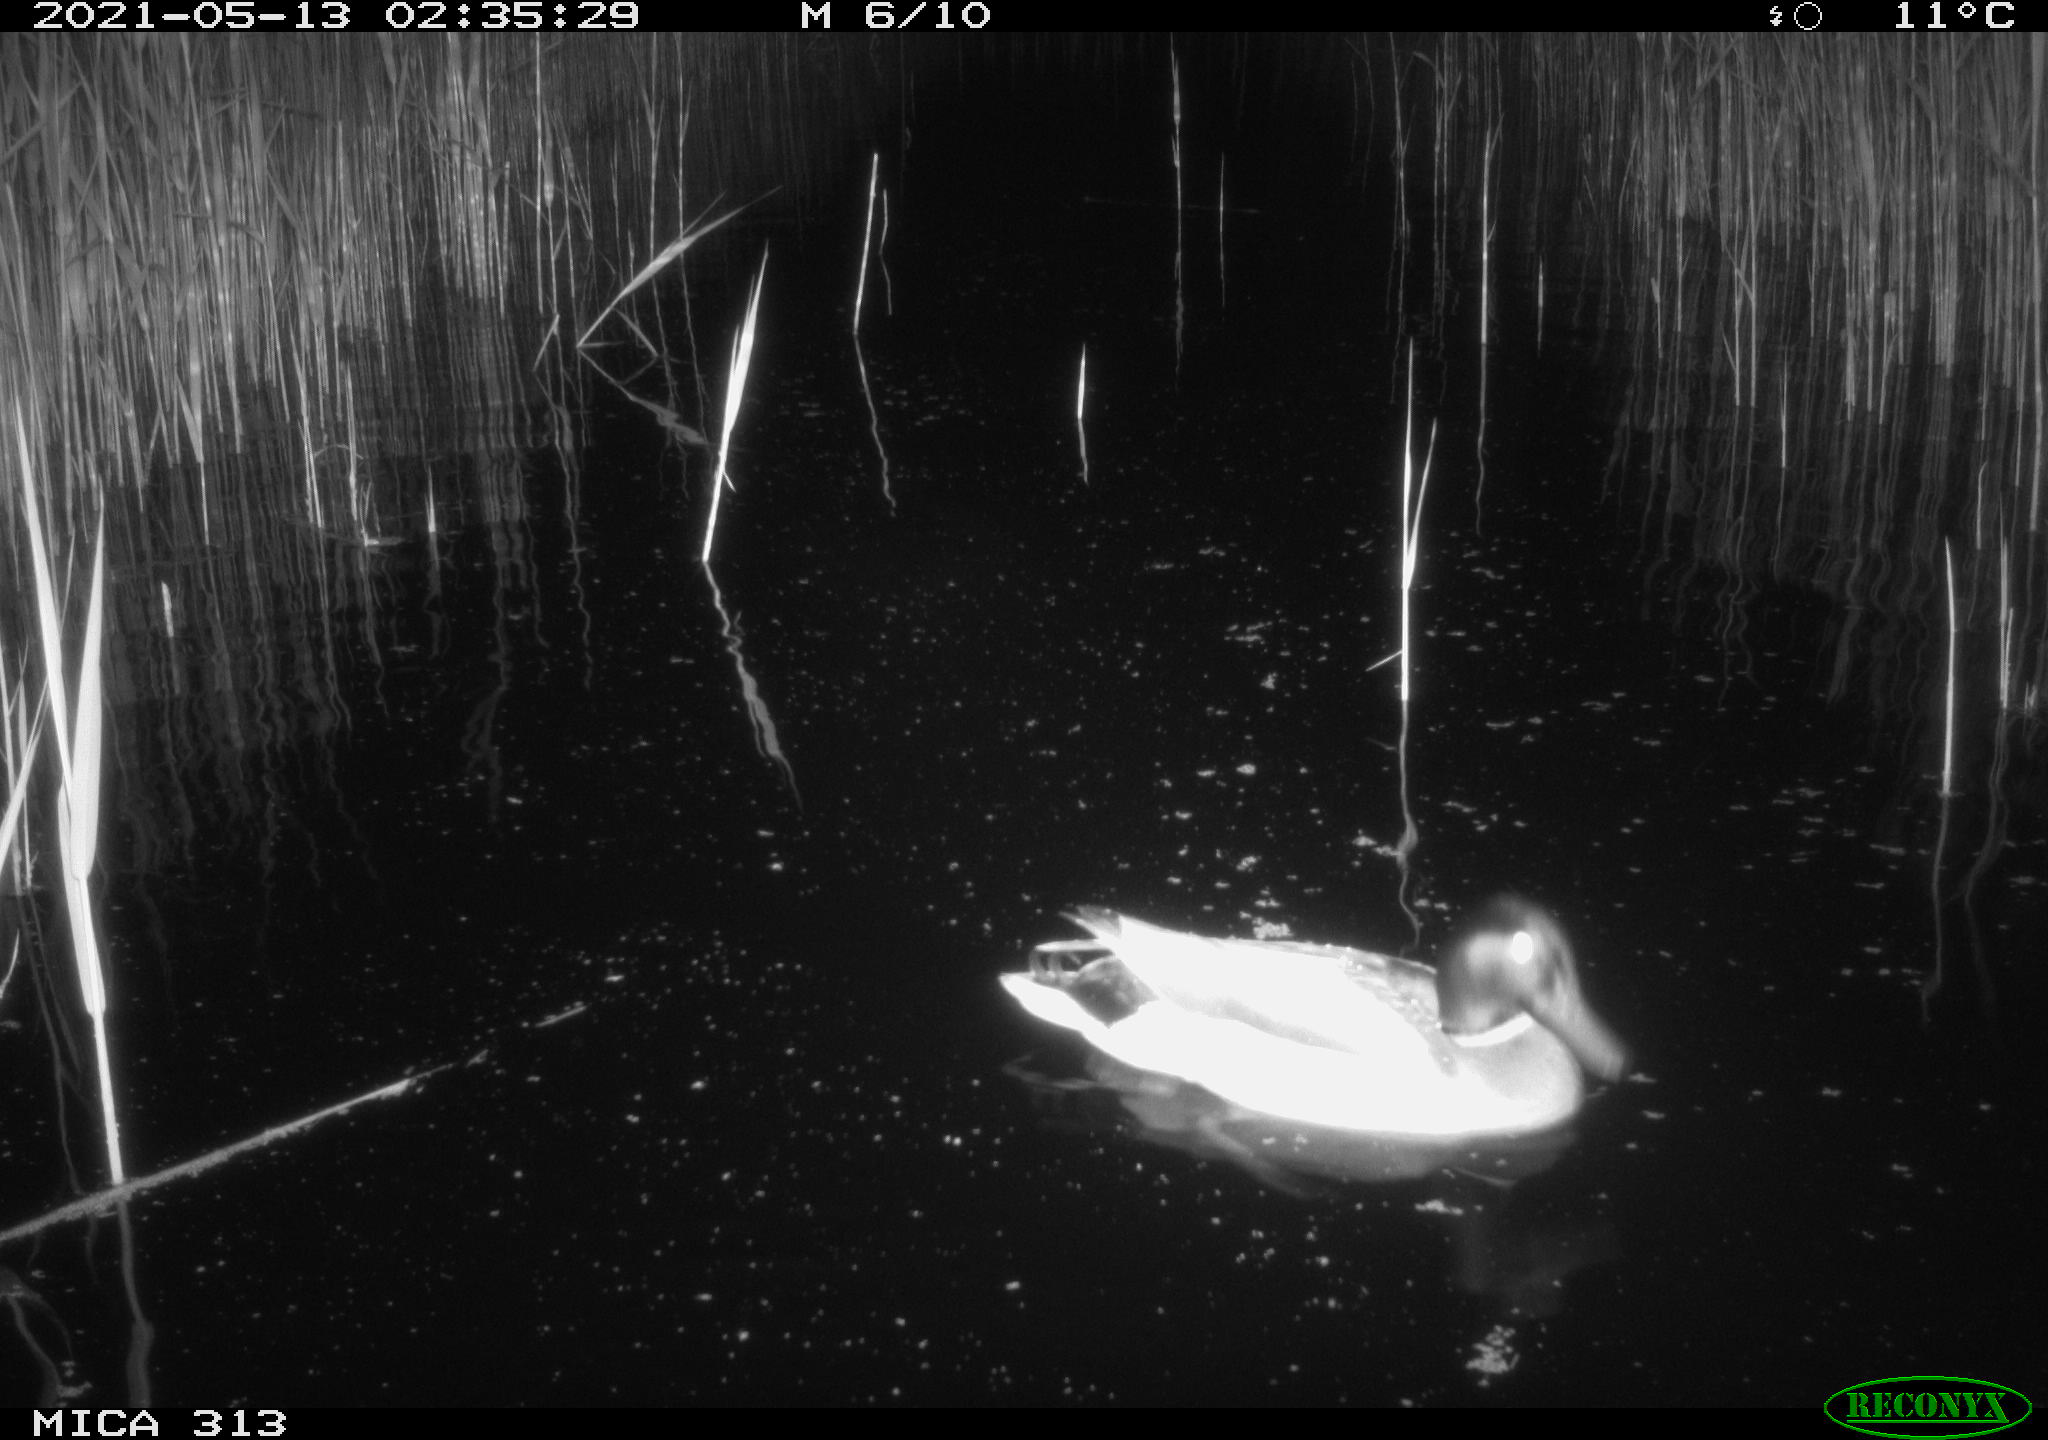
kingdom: Animalia
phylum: Chordata
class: Aves
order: Anseriformes
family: Anatidae
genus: Anas
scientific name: Anas platyrhynchos
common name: Mallard
